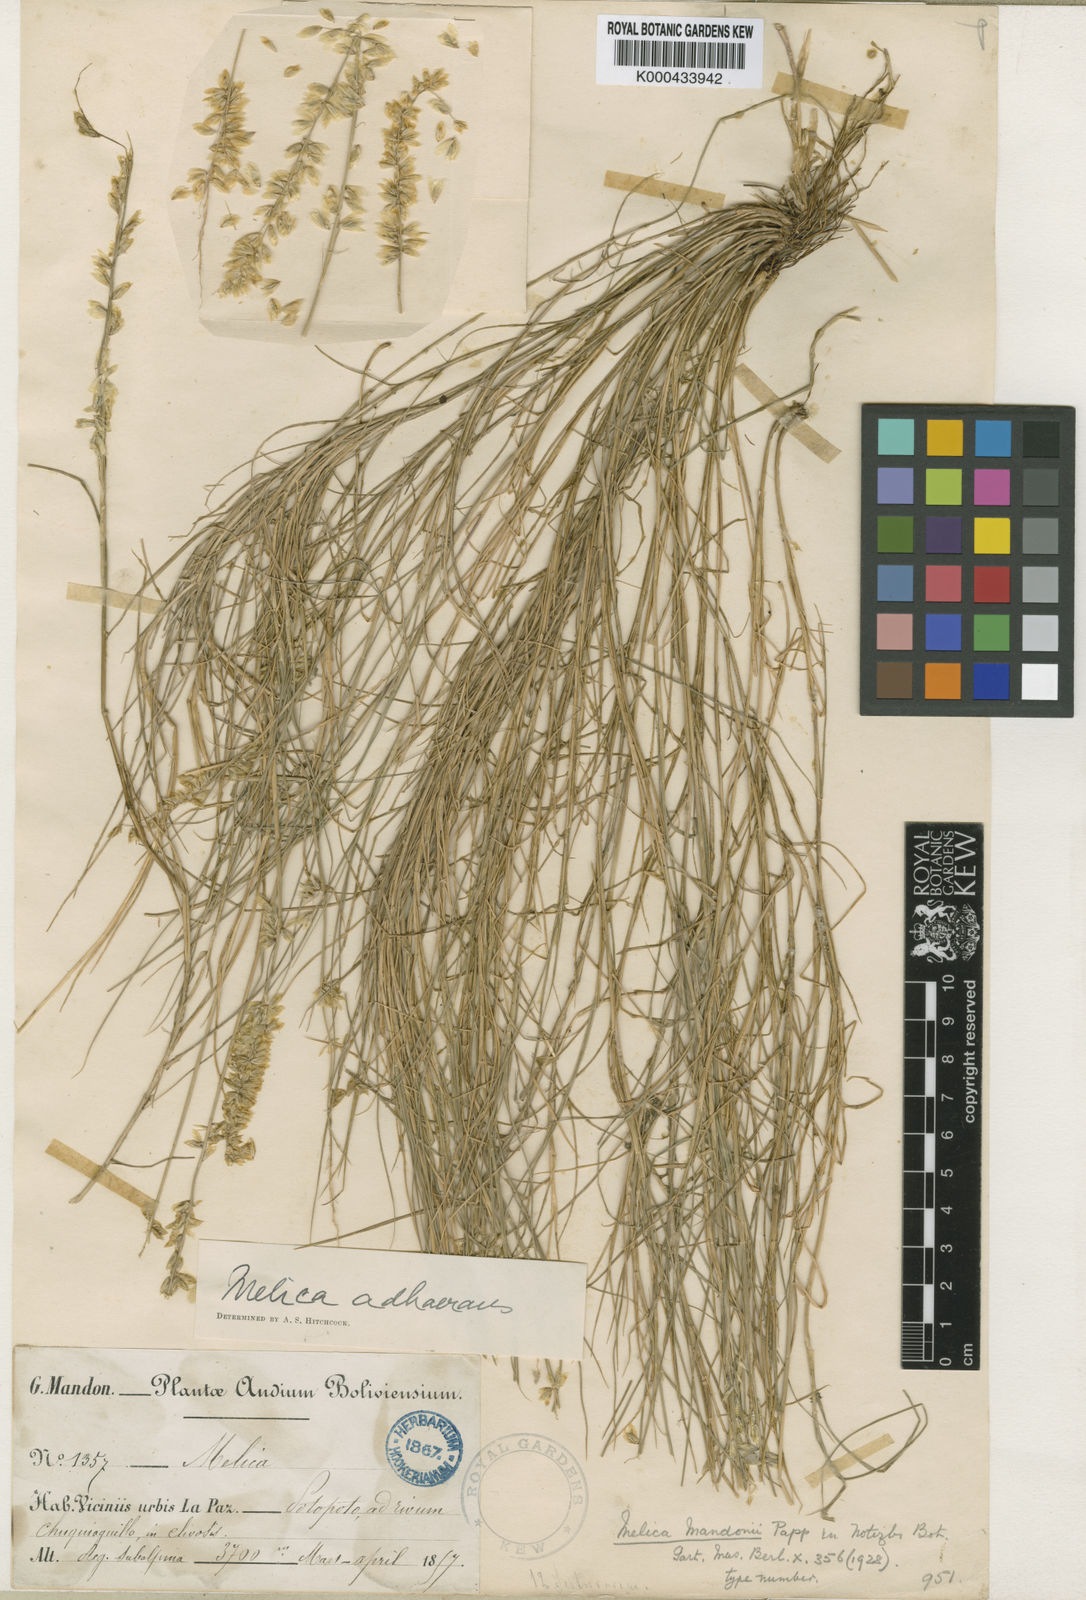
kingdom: Plantae
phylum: Tracheophyta
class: Liliopsida
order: Poales
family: Poaceae
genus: Melica
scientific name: Melica chilensis
